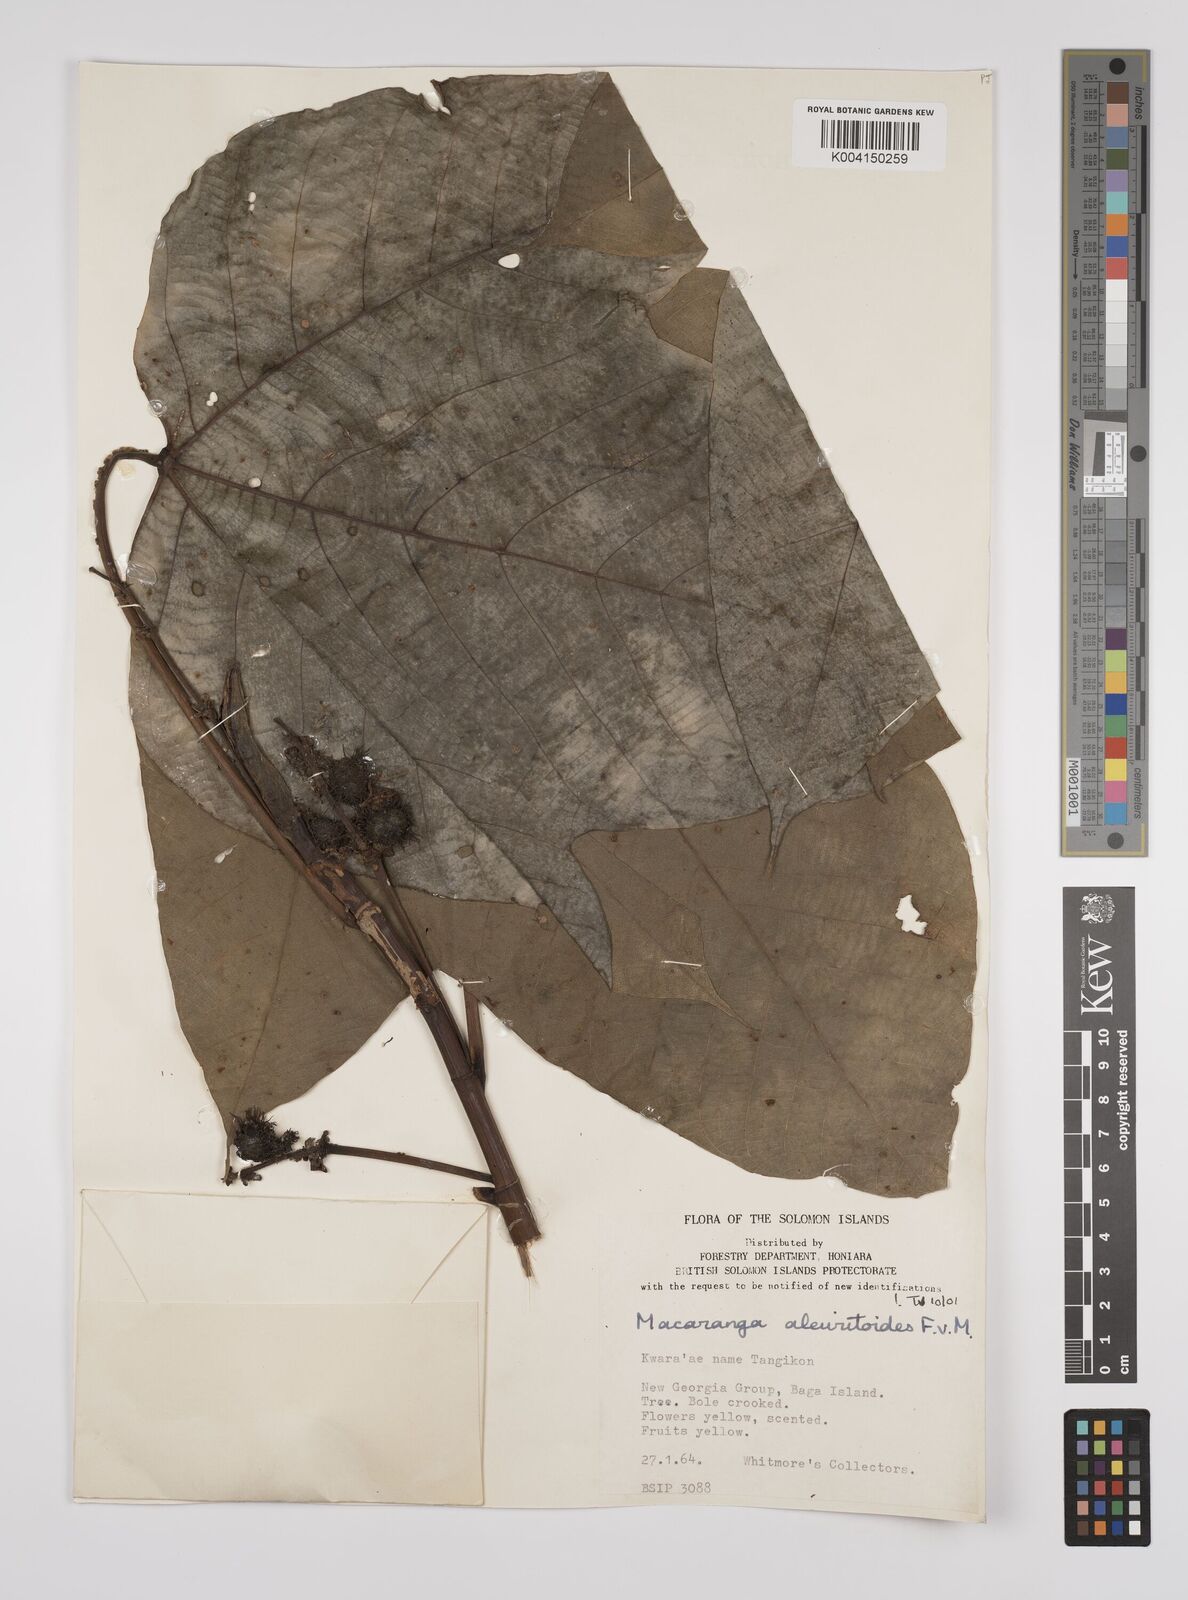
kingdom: Plantae
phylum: Tracheophyta
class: Magnoliopsida
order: Malpighiales
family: Euphorbiaceae
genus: Macaranga
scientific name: Macaranga aleuritoides
